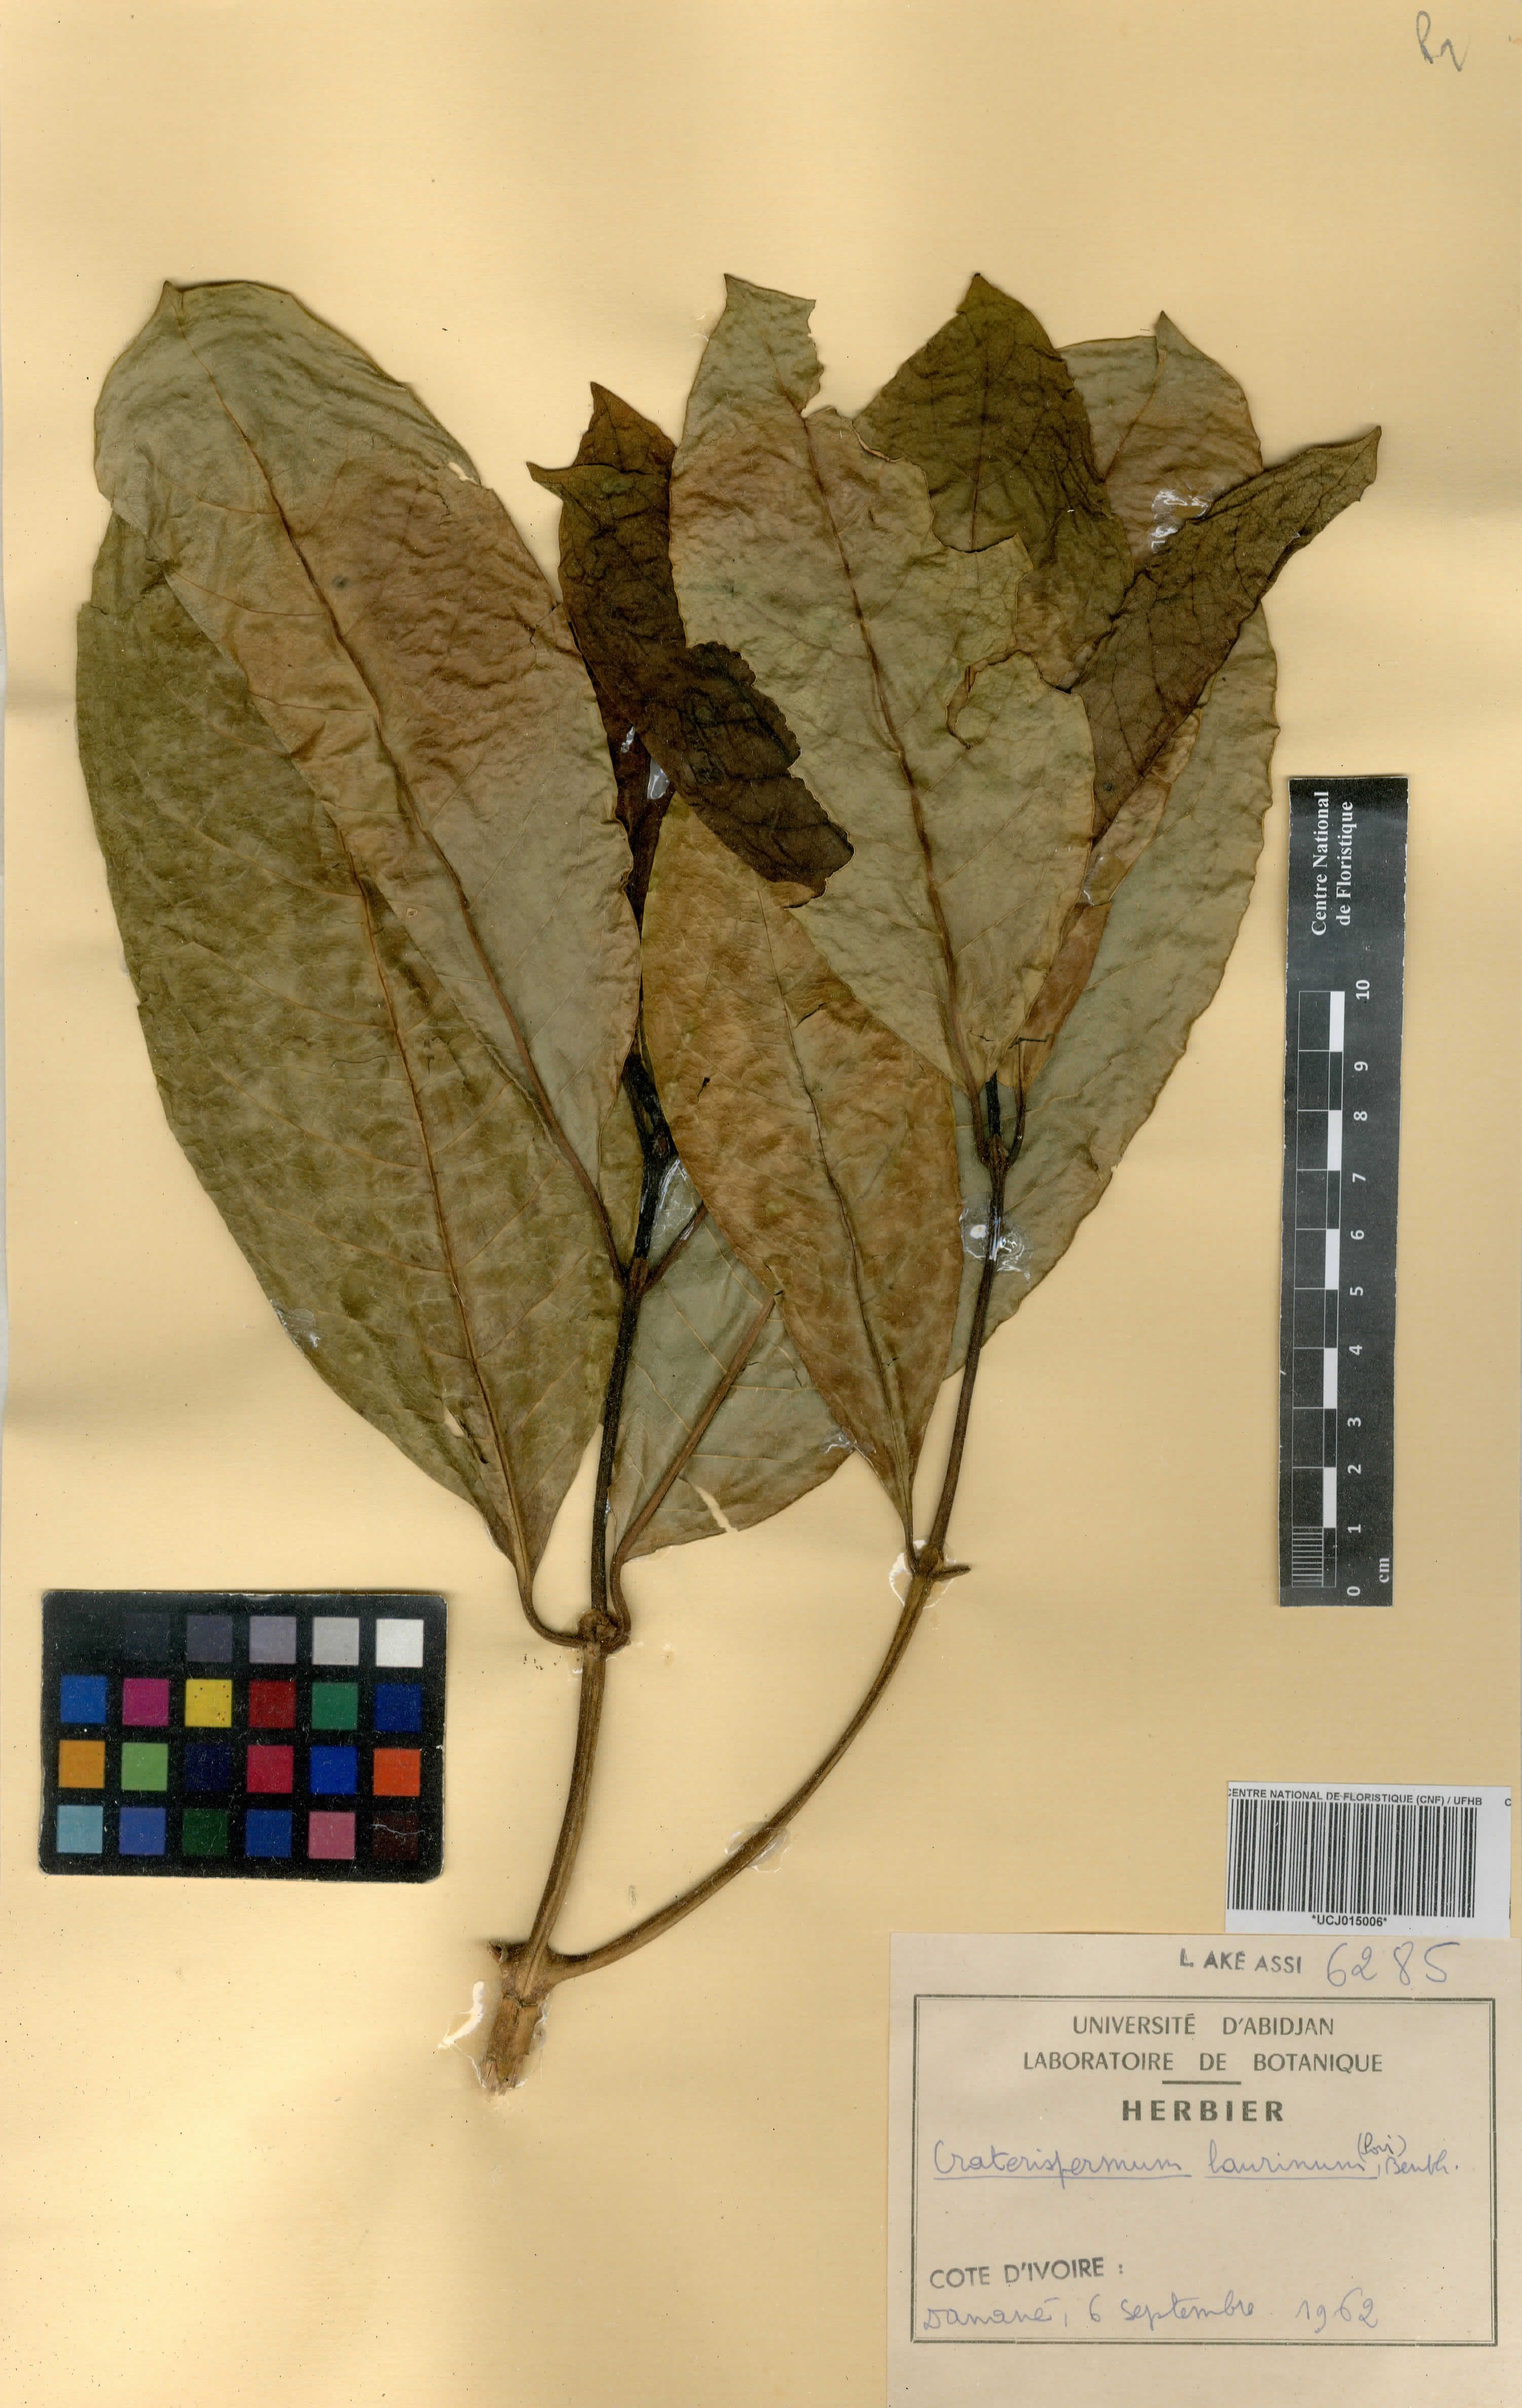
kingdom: Plantae
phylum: Tracheophyta
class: Magnoliopsida
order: Gentianales
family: Rubiaceae
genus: Craterispermum
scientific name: Craterispermum laurinum
